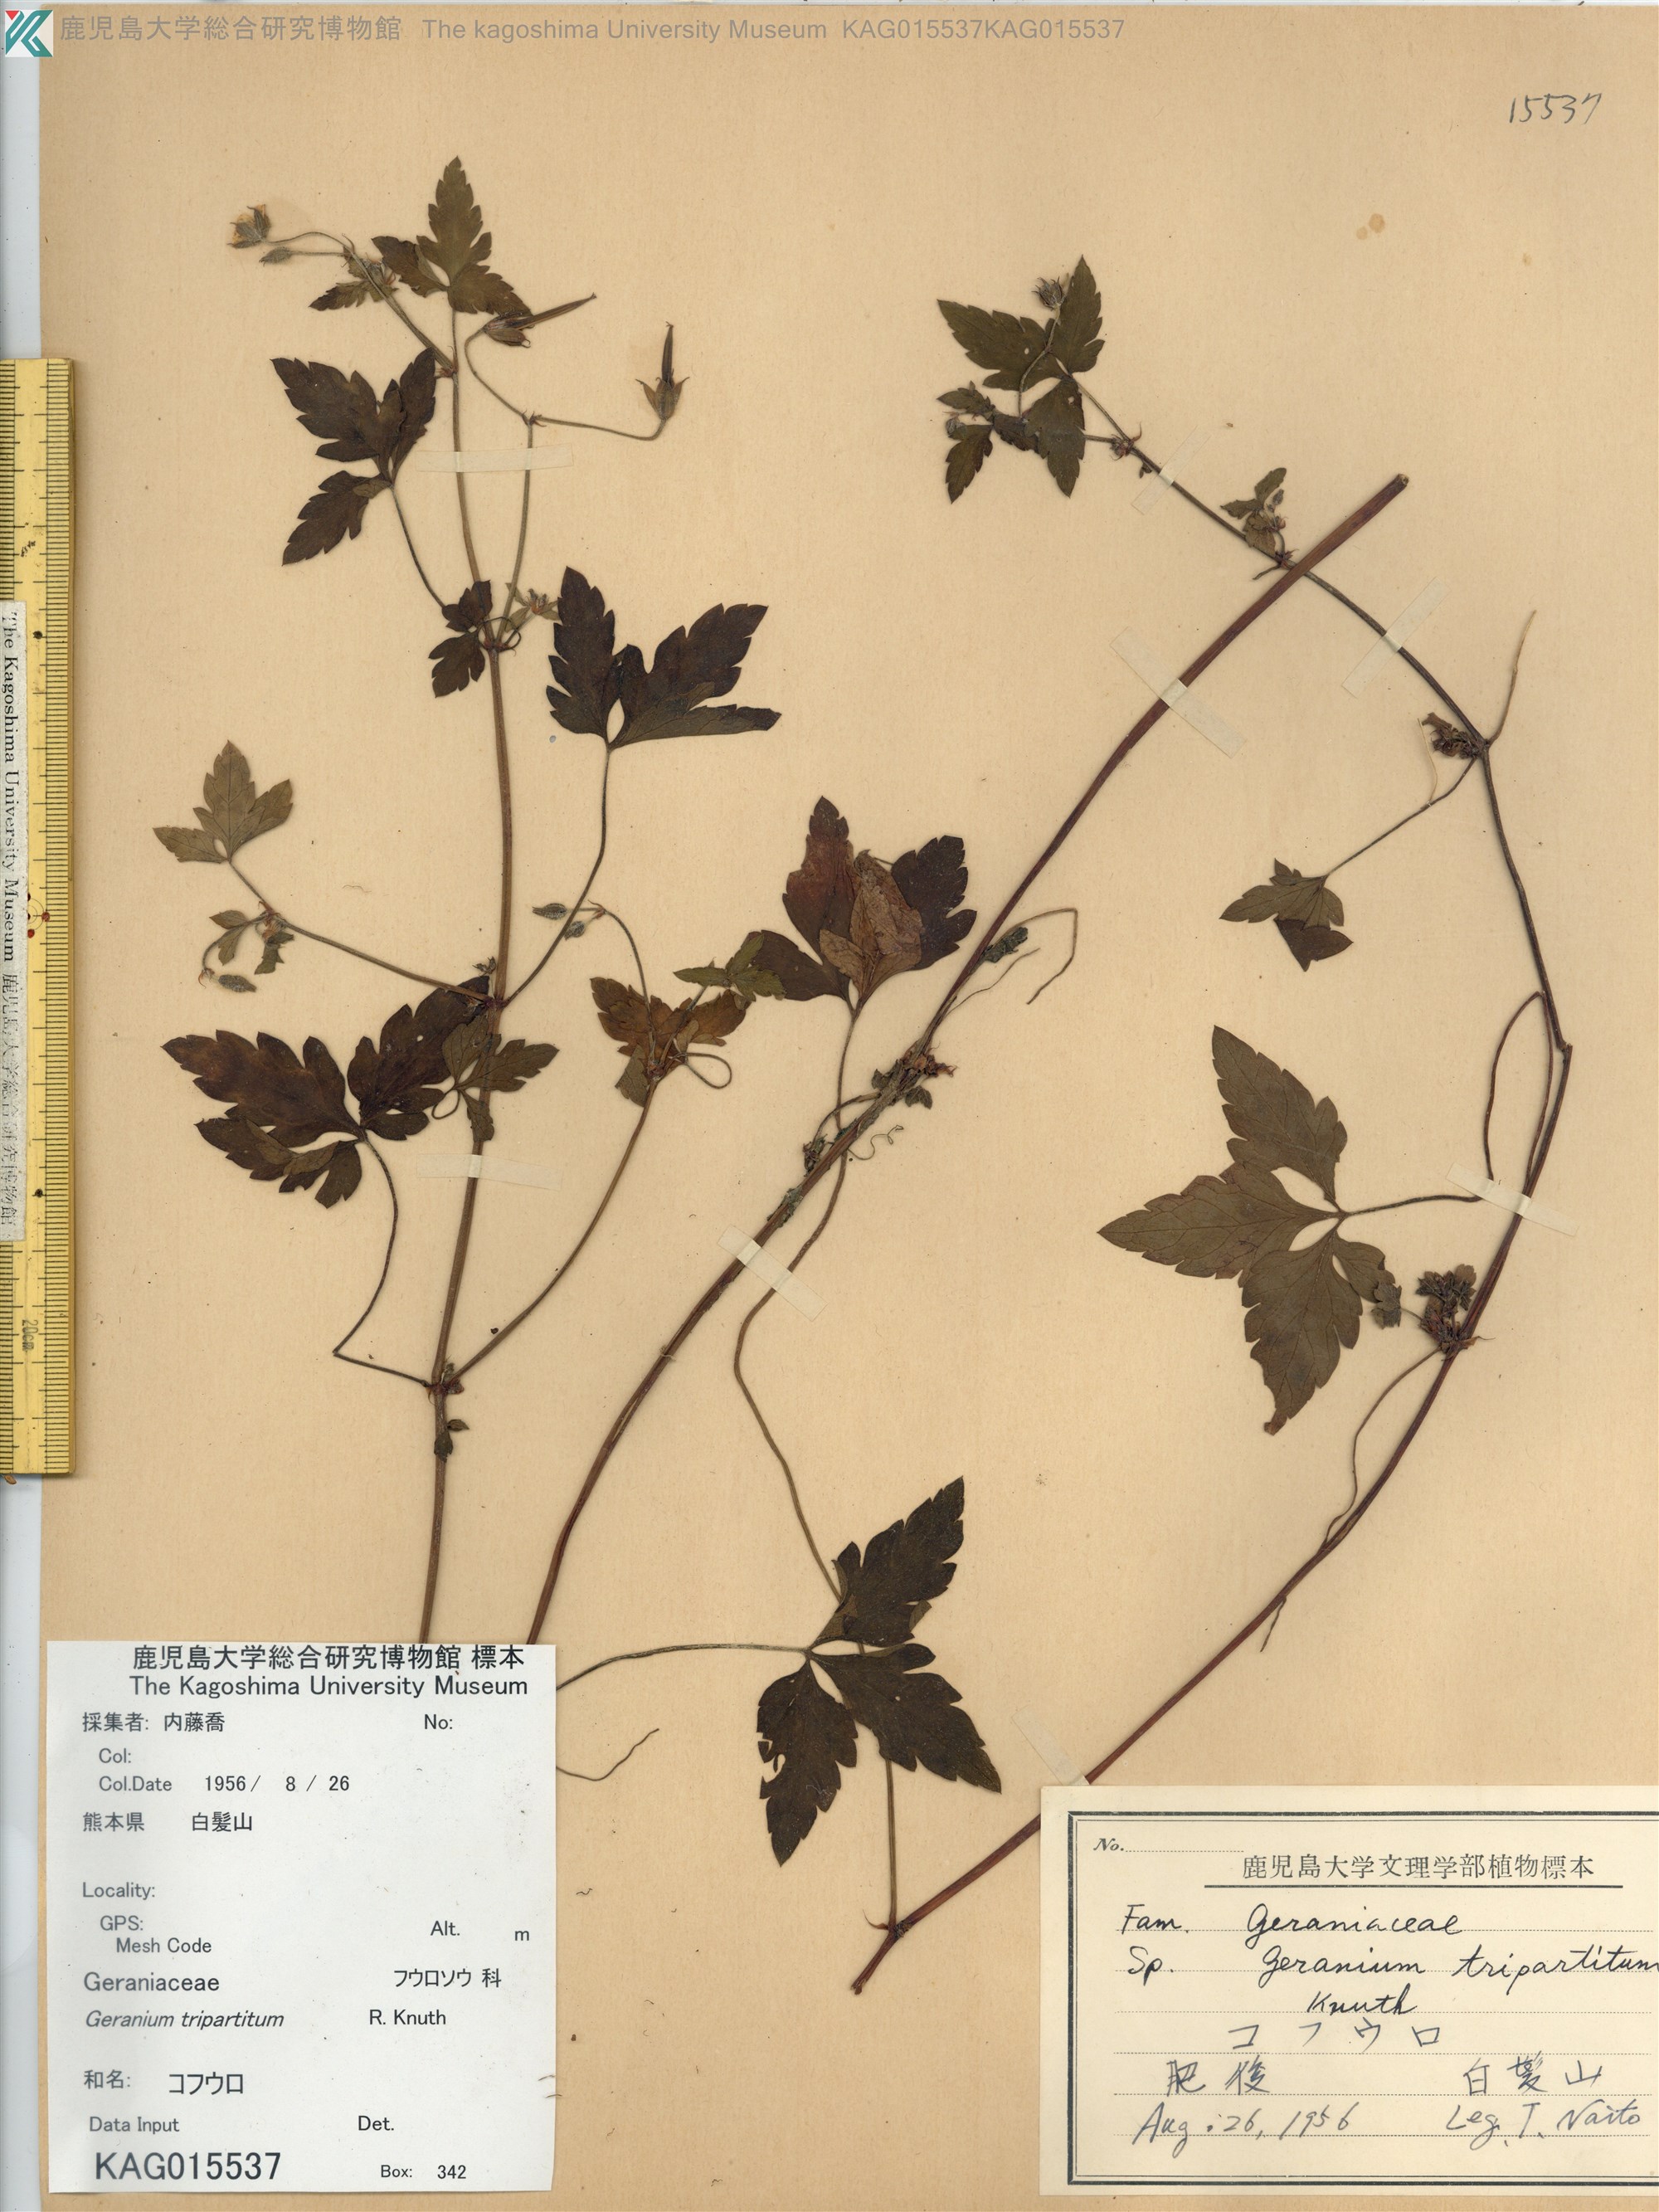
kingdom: Plantae
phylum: Tracheophyta
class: Magnoliopsida
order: Geraniales
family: Geraniaceae
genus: Geranium
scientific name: Geranium tripartitum
